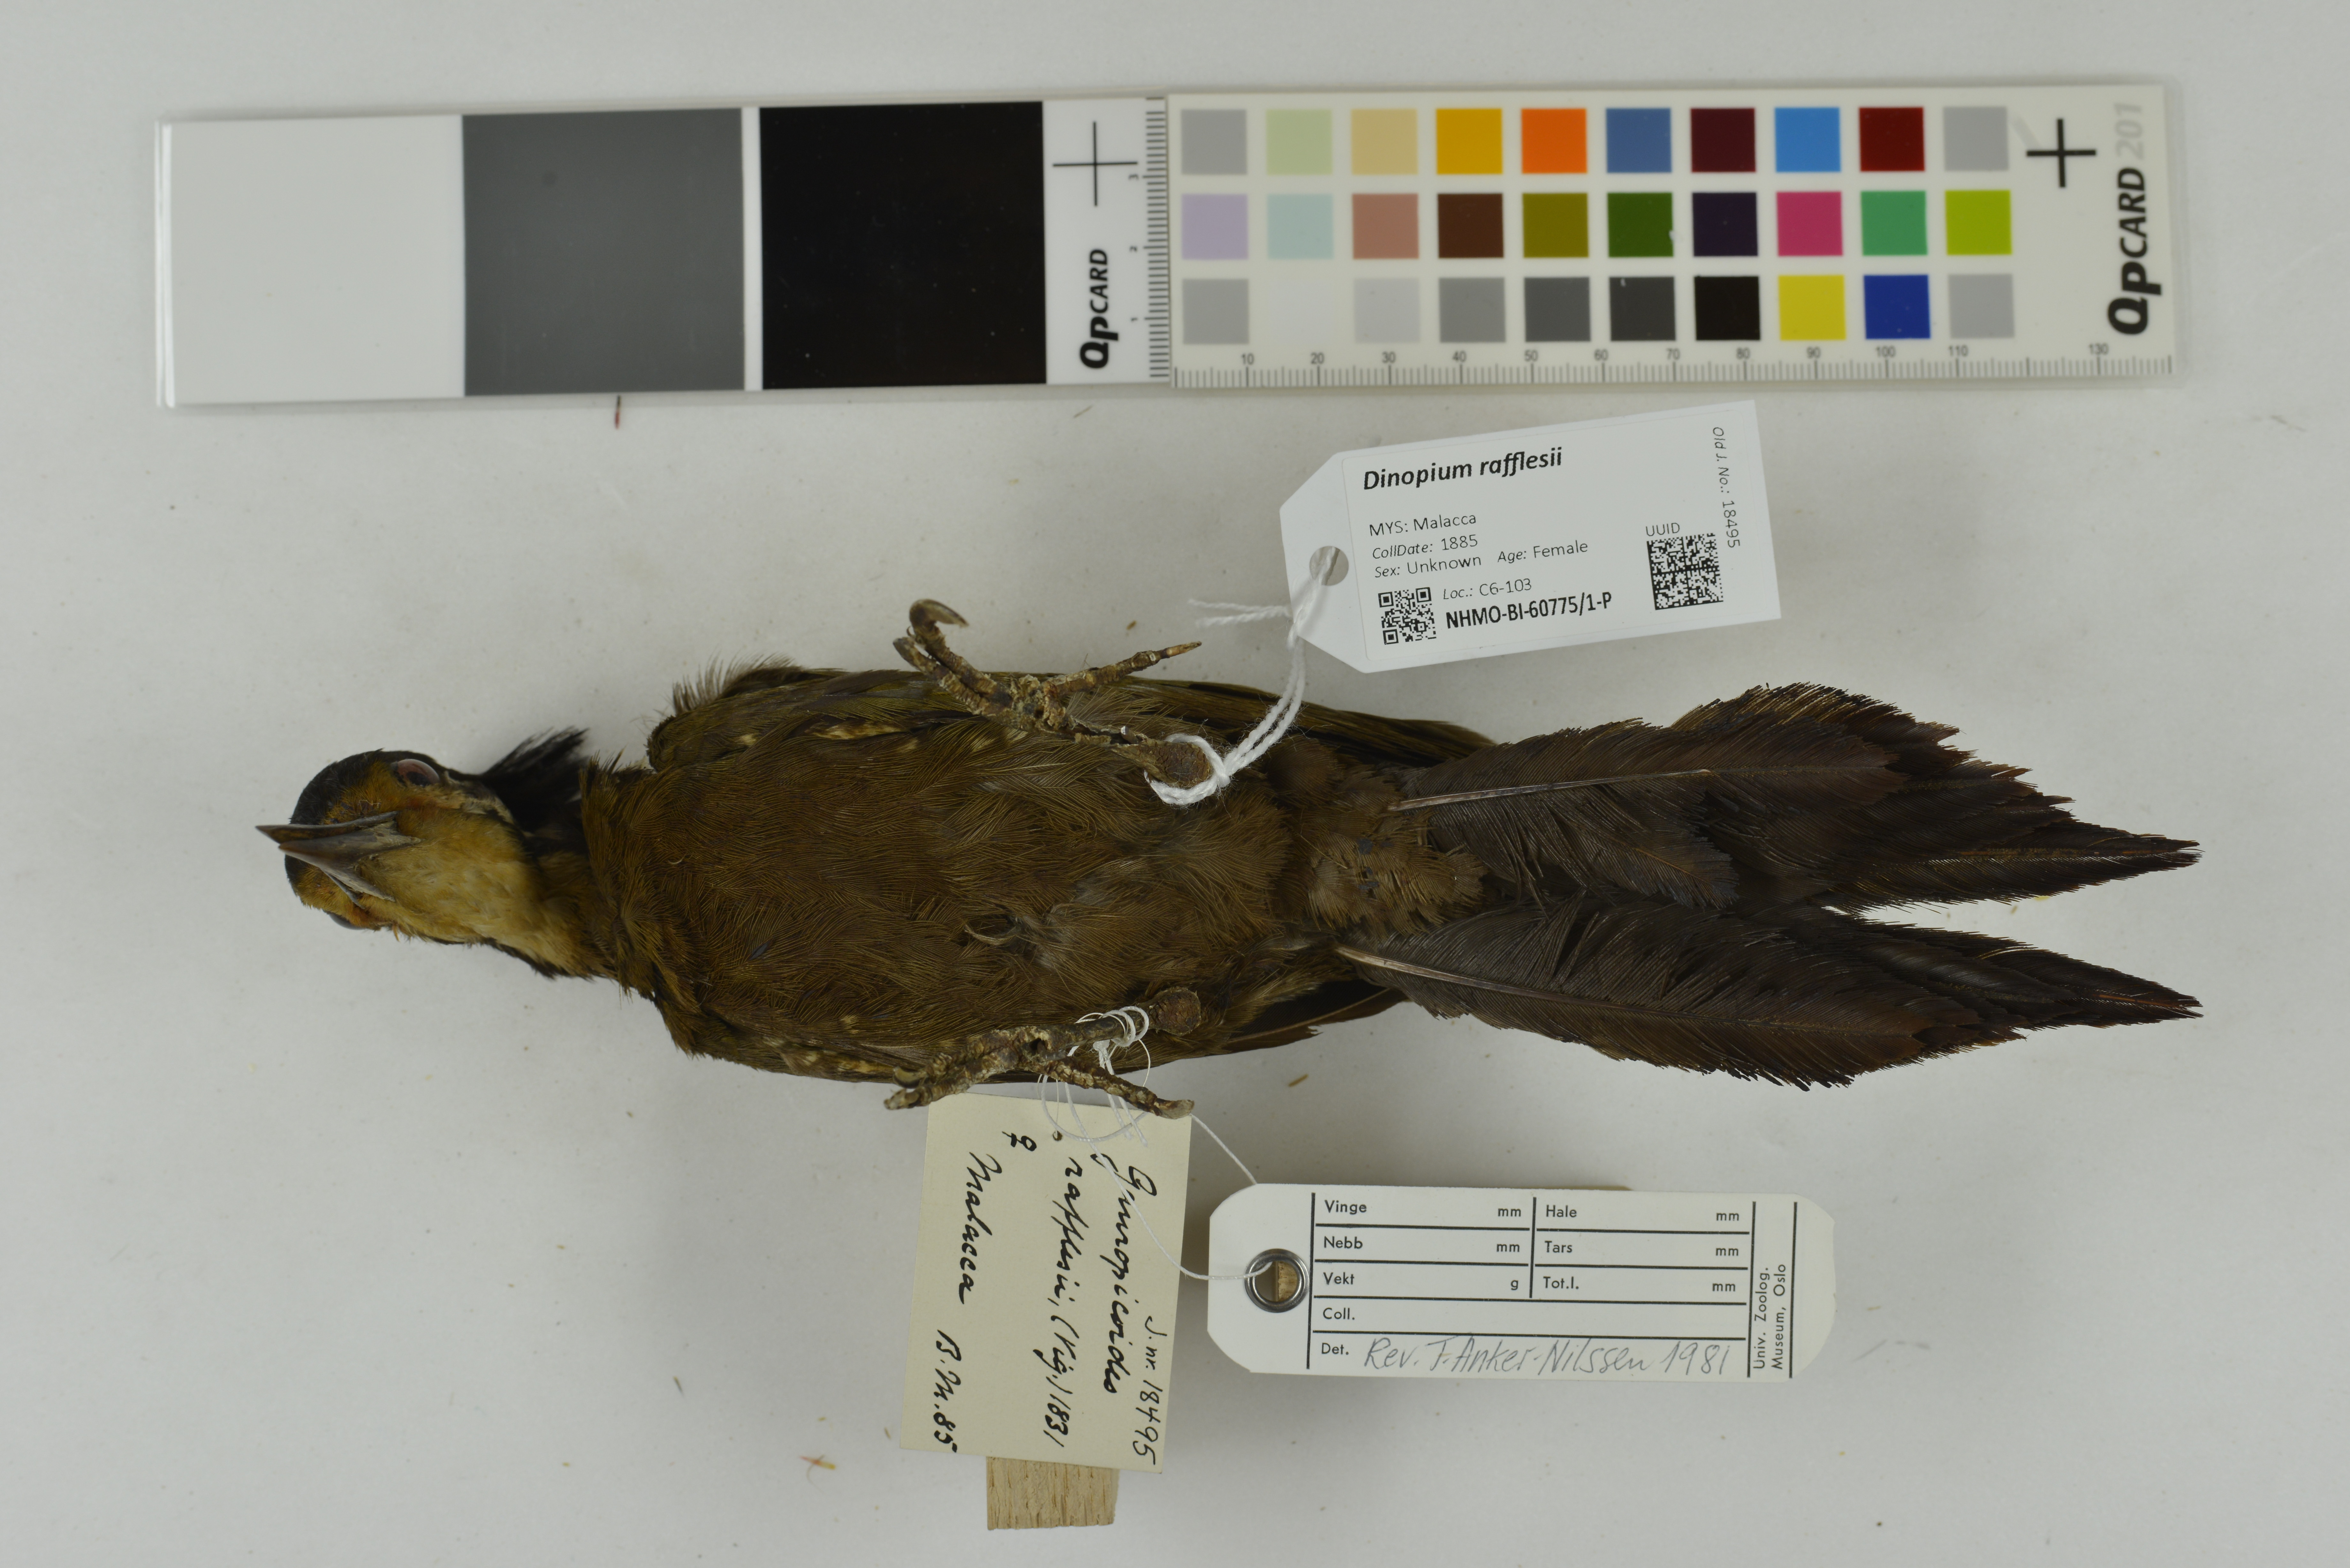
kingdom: Animalia
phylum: Chordata
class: Aves
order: Piciformes
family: Picidae
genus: Gecinulus
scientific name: Gecinulus rafflesii
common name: Olive-backed woodpecker
